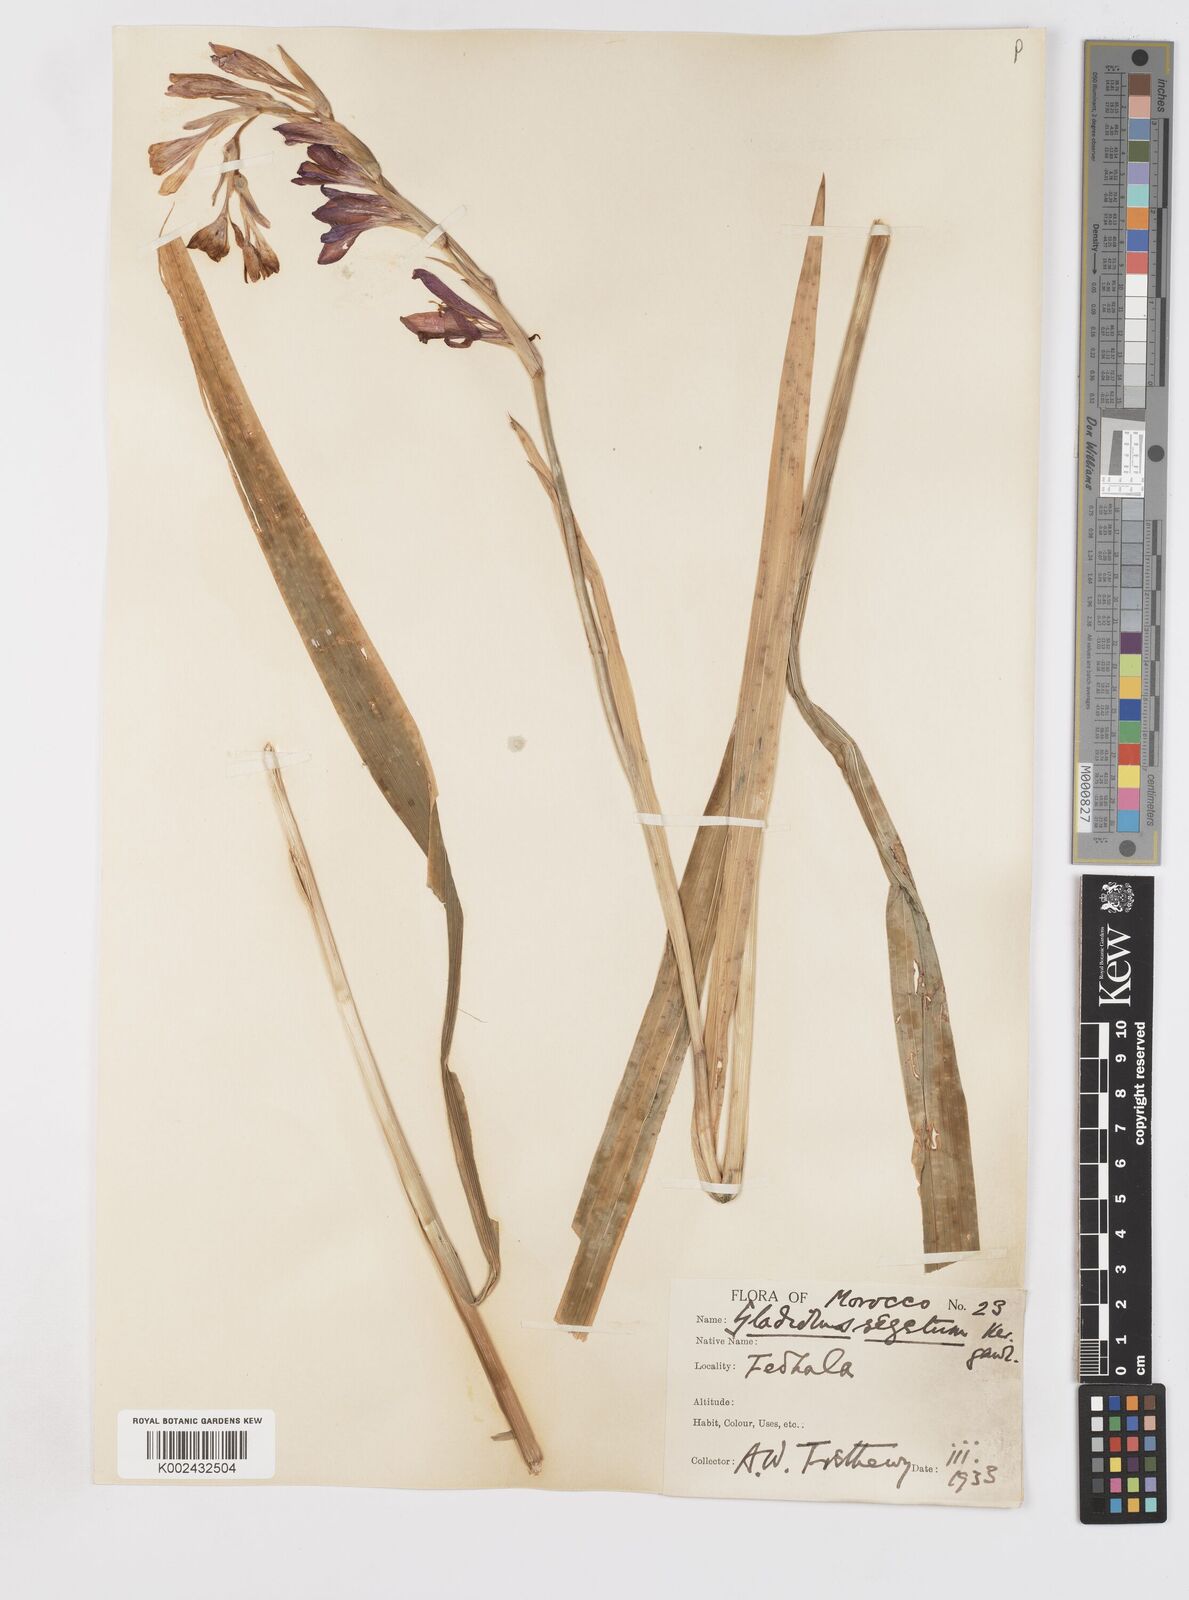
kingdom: Plantae
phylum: Tracheophyta
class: Liliopsida
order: Asparagales
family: Iridaceae
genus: Gladiolus
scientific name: Gladiolus italicus
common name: Field gladiolus
